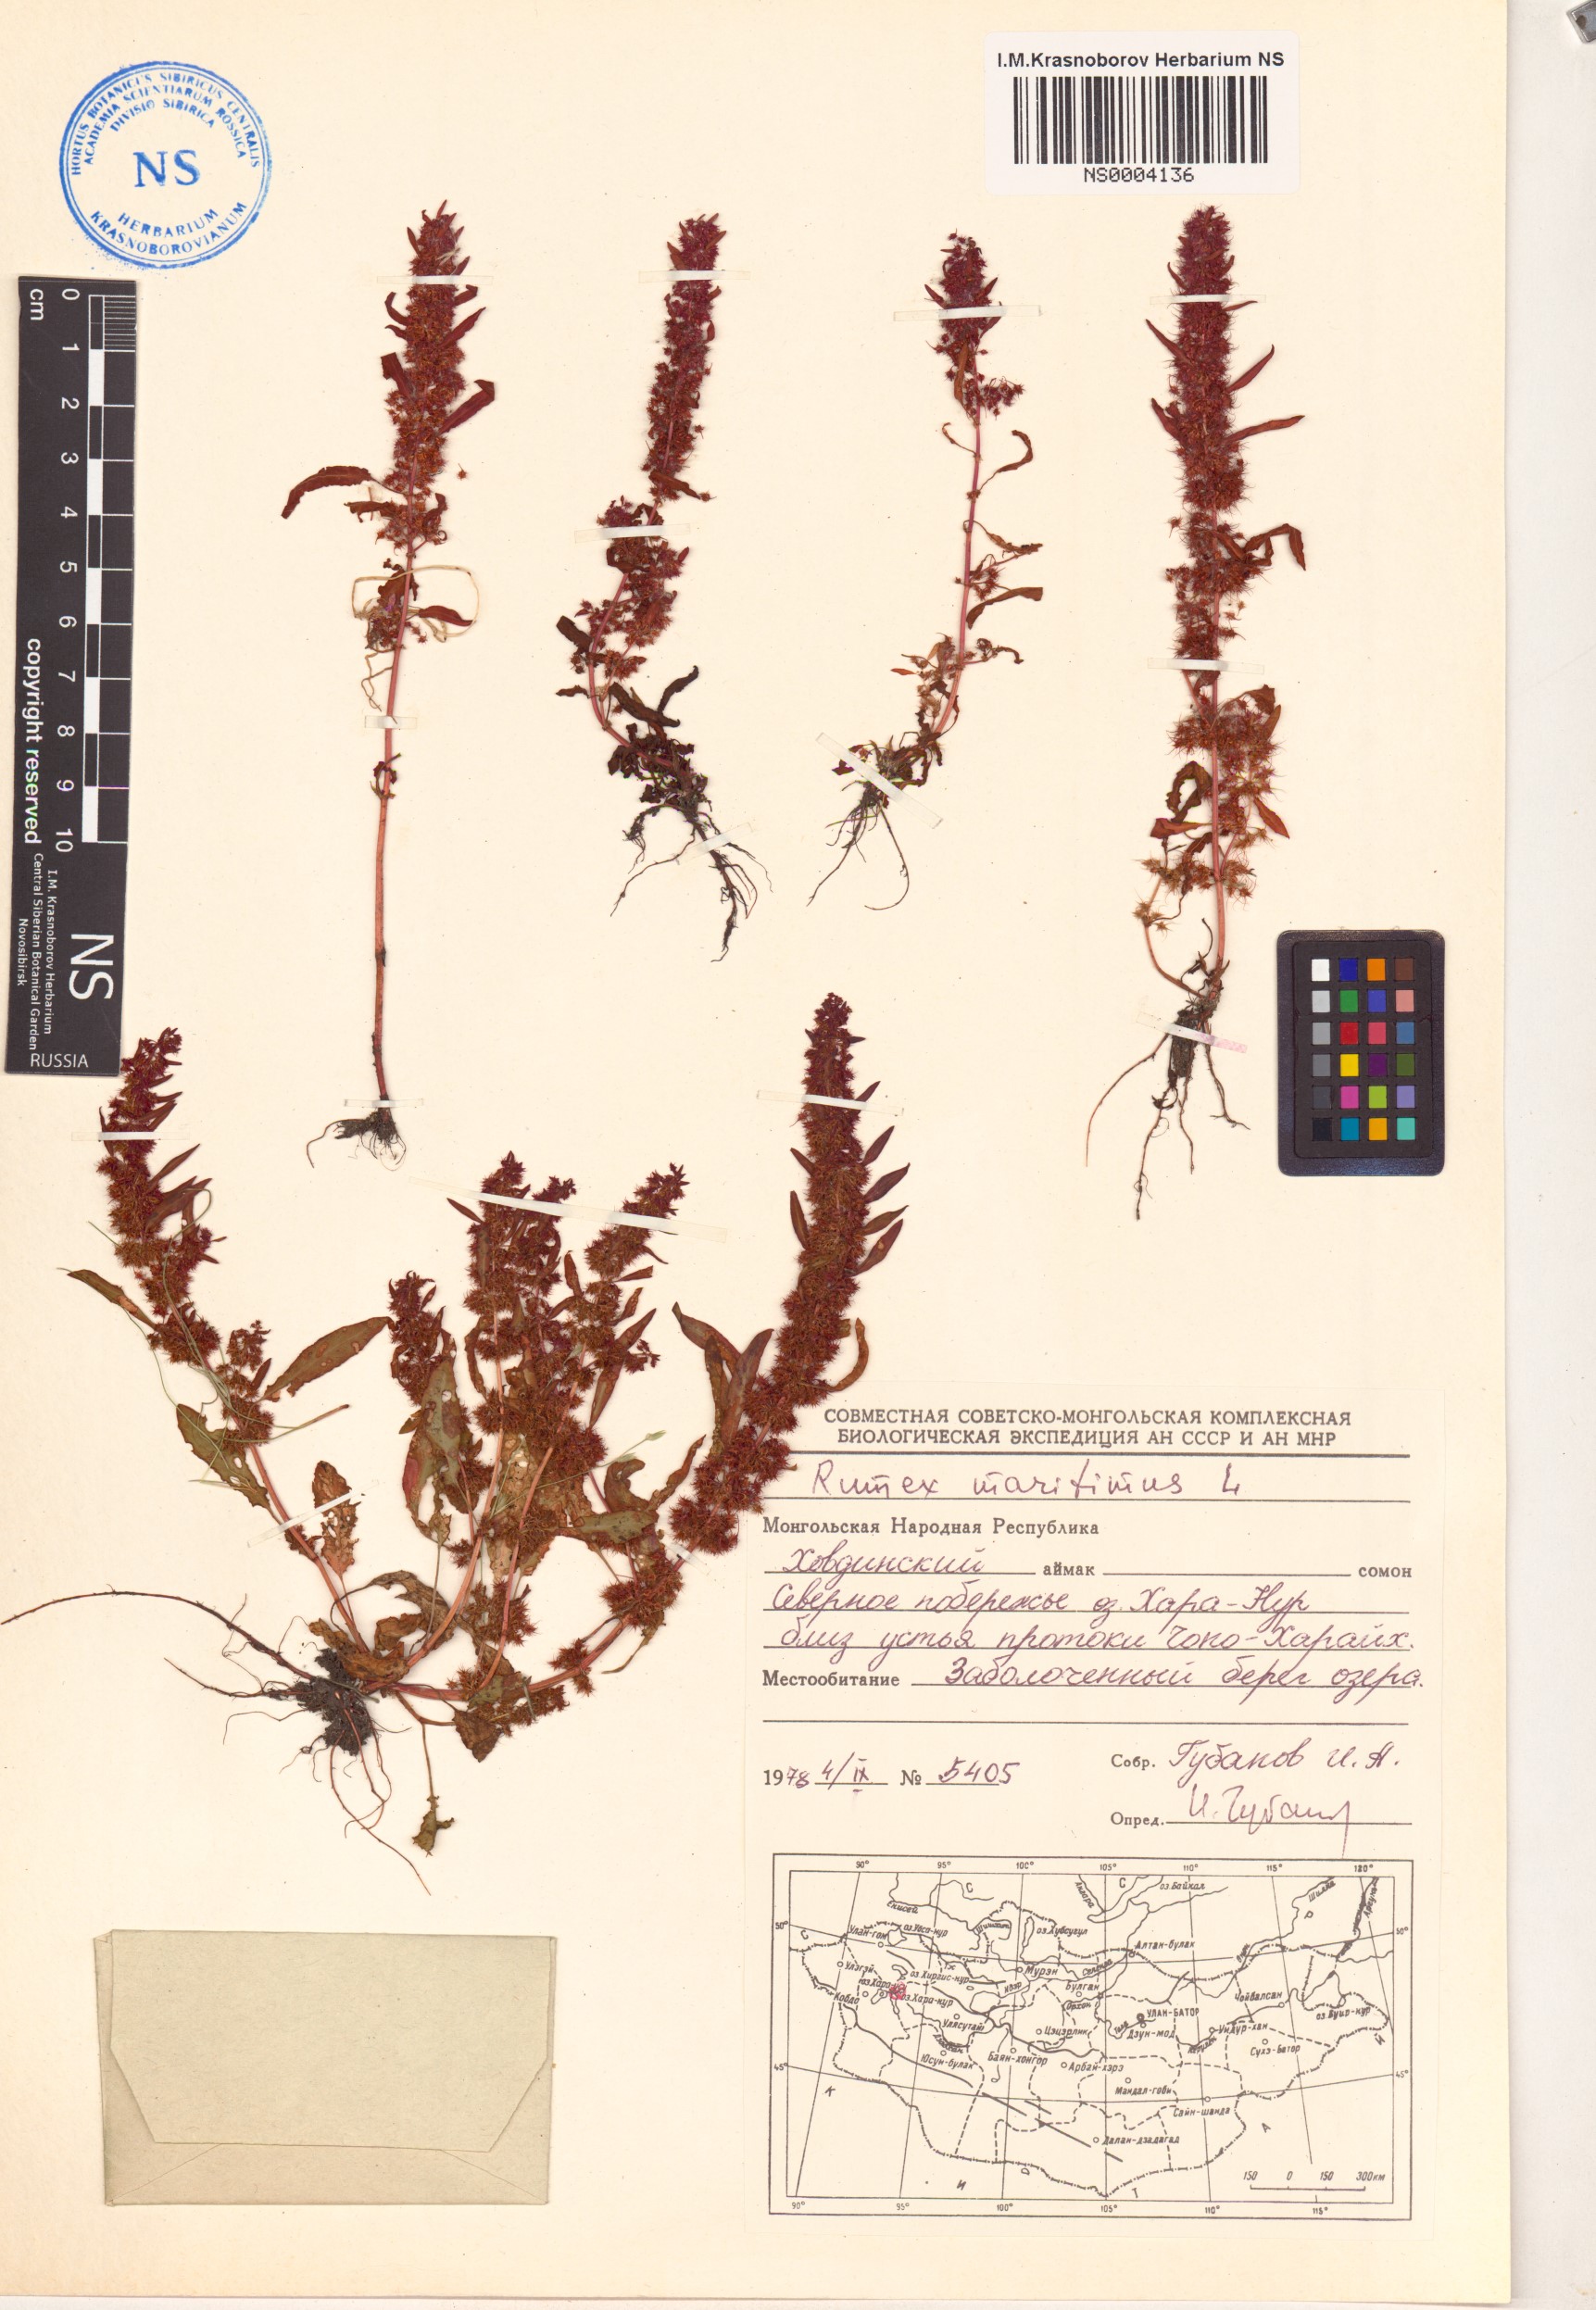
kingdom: Plantae
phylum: Tracheophyta
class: Magnoliopsida
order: Caryophyllales
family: Polygonaceae
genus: Rumex
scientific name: Rumex maritimus
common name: Golden dock
